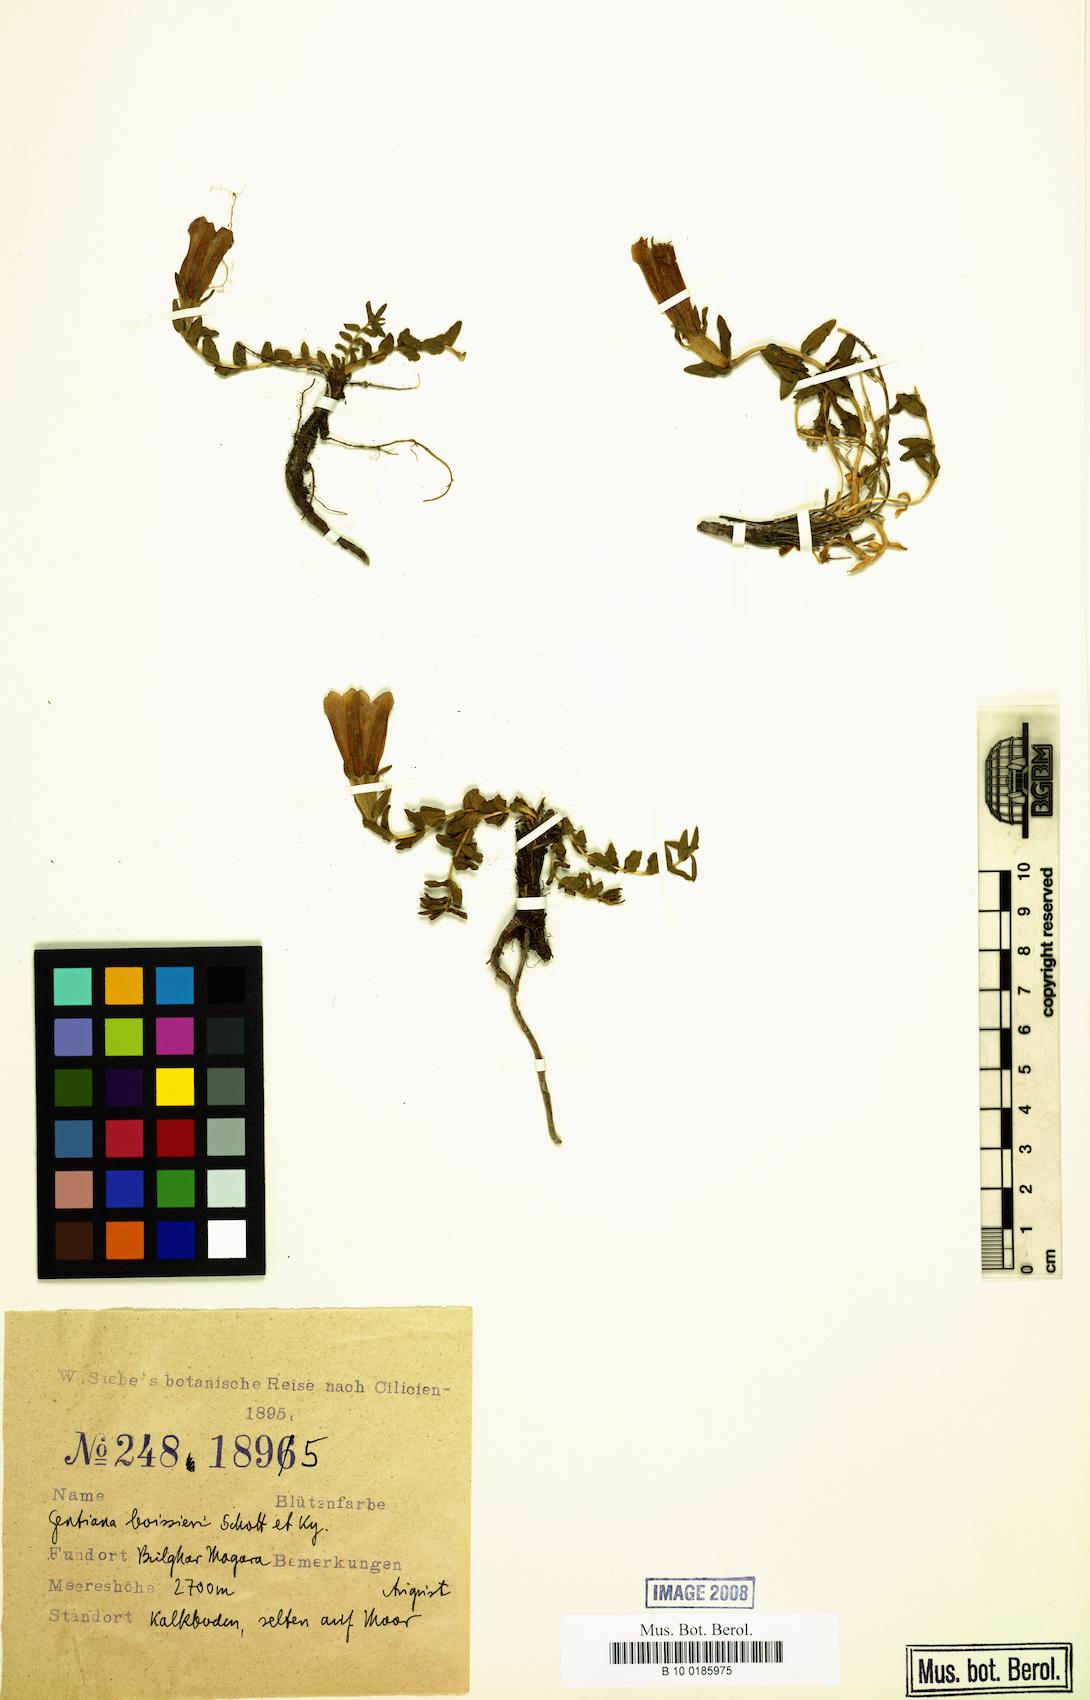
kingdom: Plantae
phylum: Tracheophyta
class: Magnoliopsida
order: Gentianales
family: Gentianaceae
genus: Gentiana
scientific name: Gentiana boissieri
